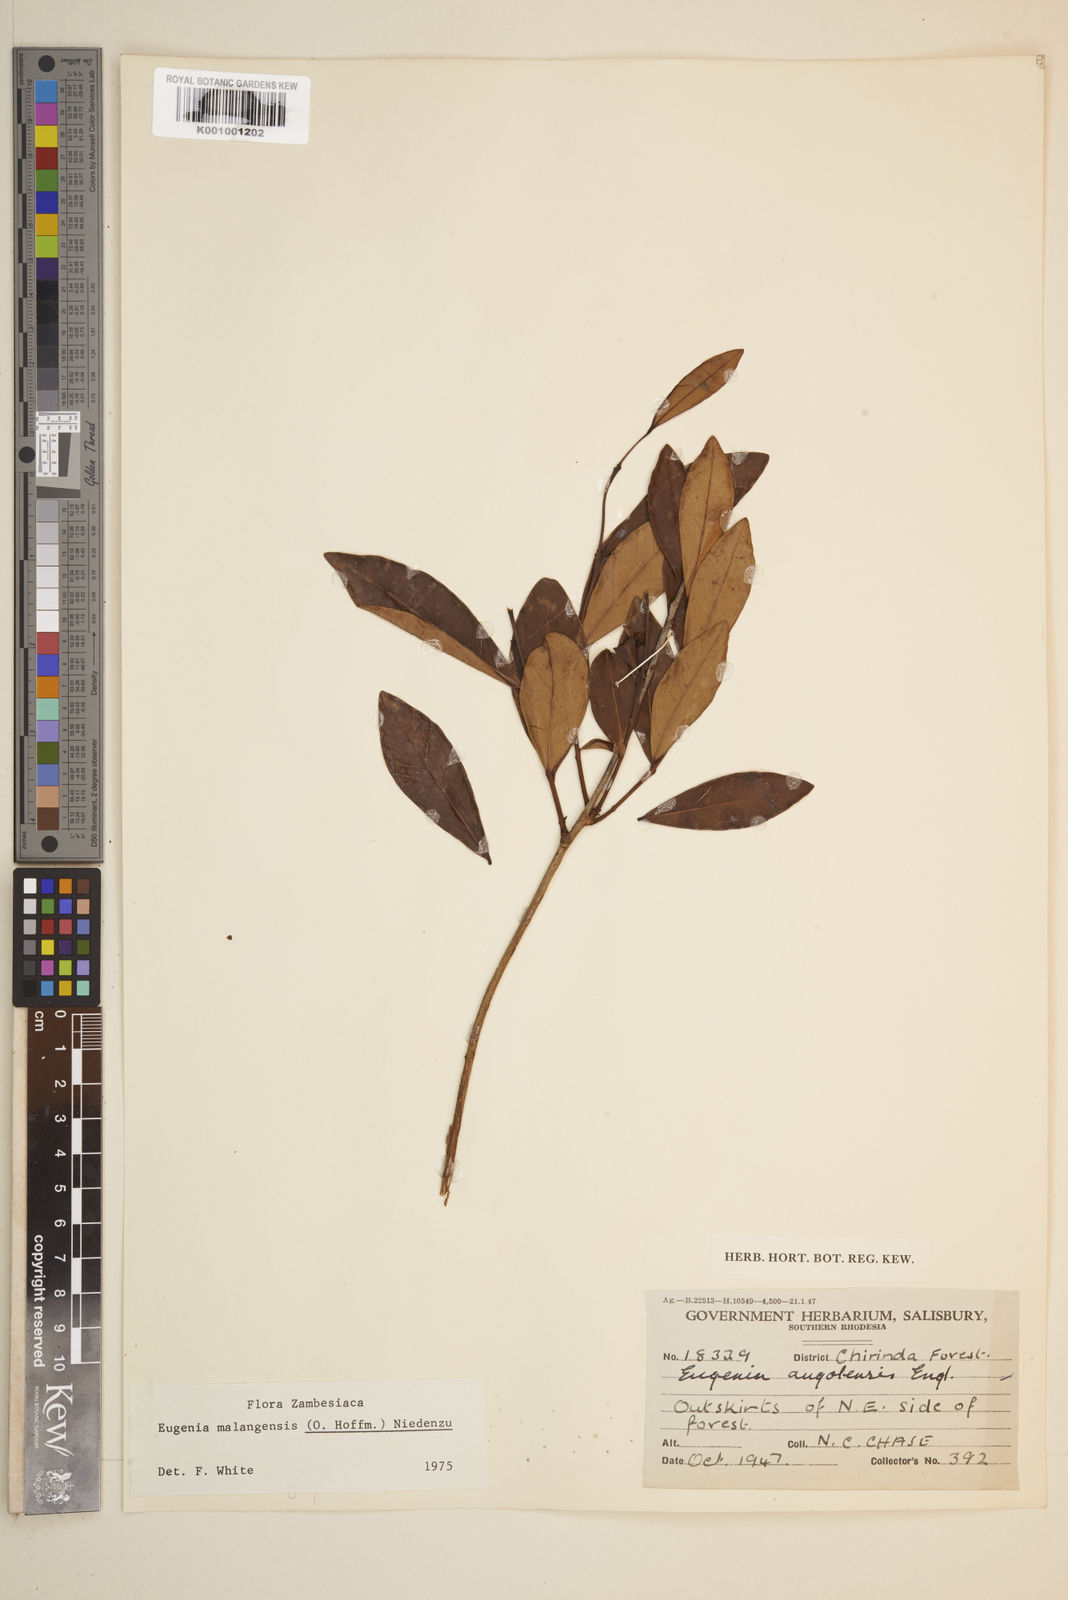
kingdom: Plantae
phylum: Tracheophyta
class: Magnoliopsida
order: Myrtales
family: Myrtaceae
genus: Eugenia
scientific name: Eugenia malangensis
